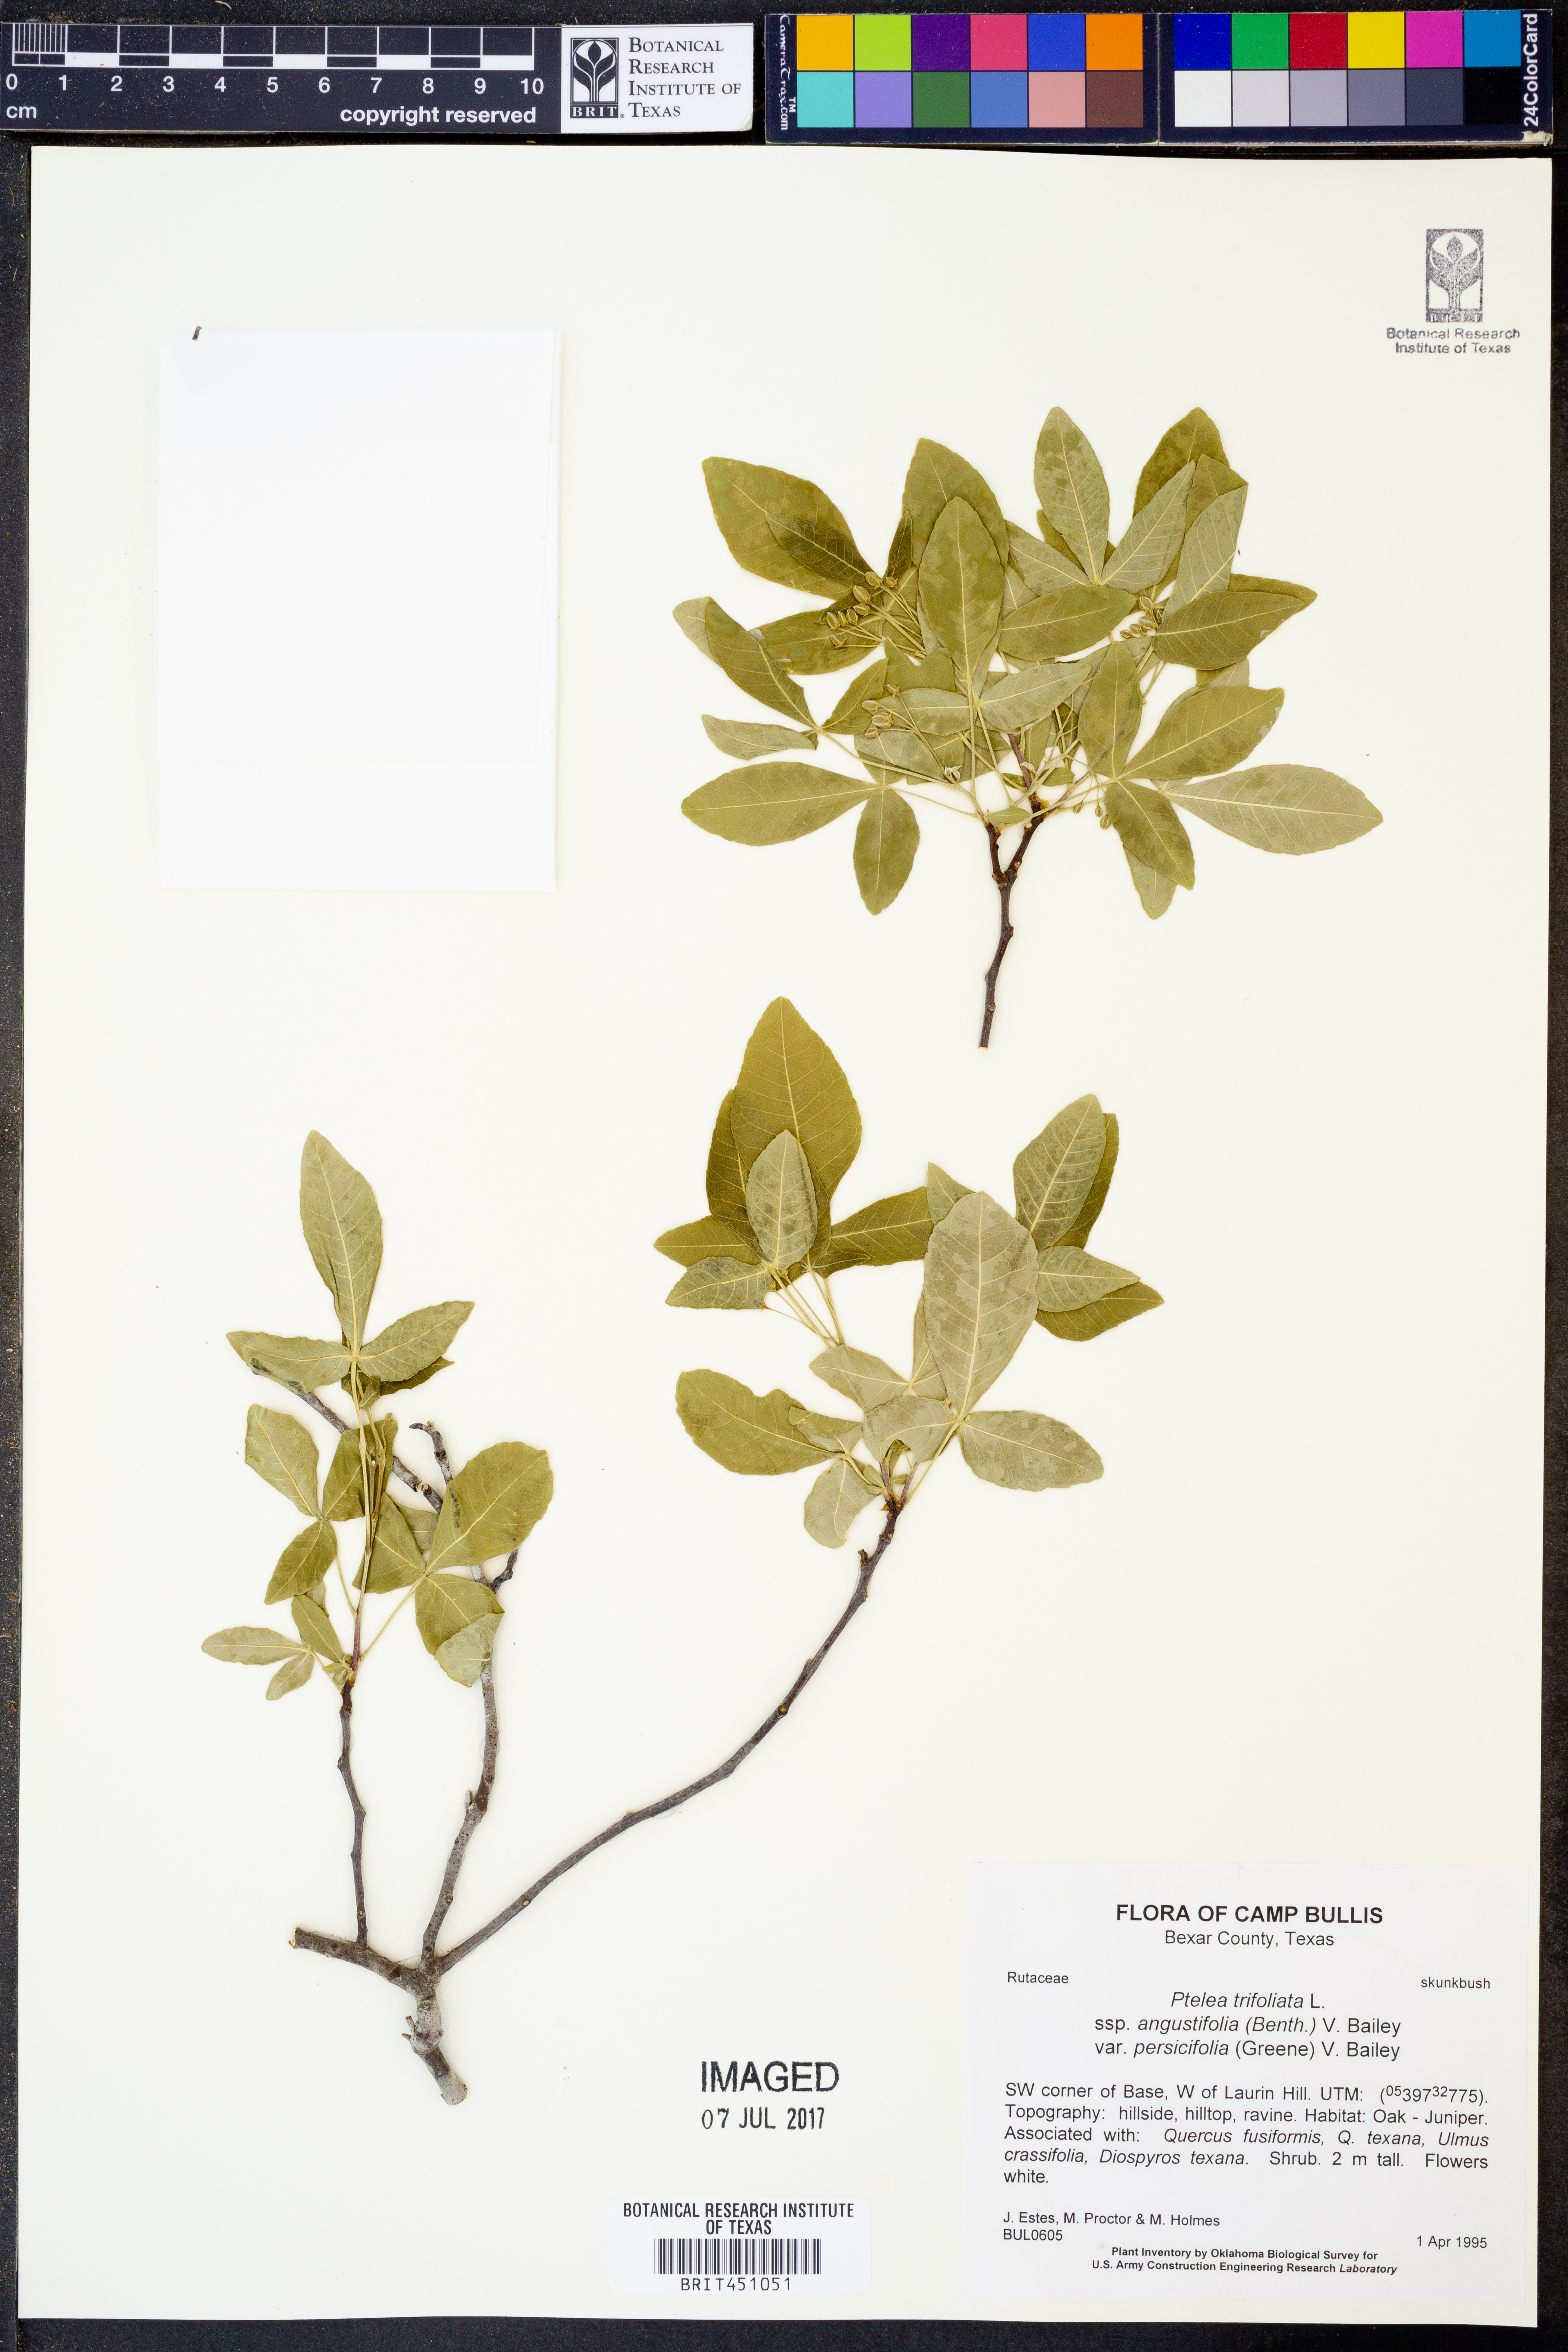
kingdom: Plantae
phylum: Tracheophyta
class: Magnoliopsida
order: Sapindales
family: Rutaceae
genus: Ptelea
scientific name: Ptelea trifoliata
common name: Common hop-tree
